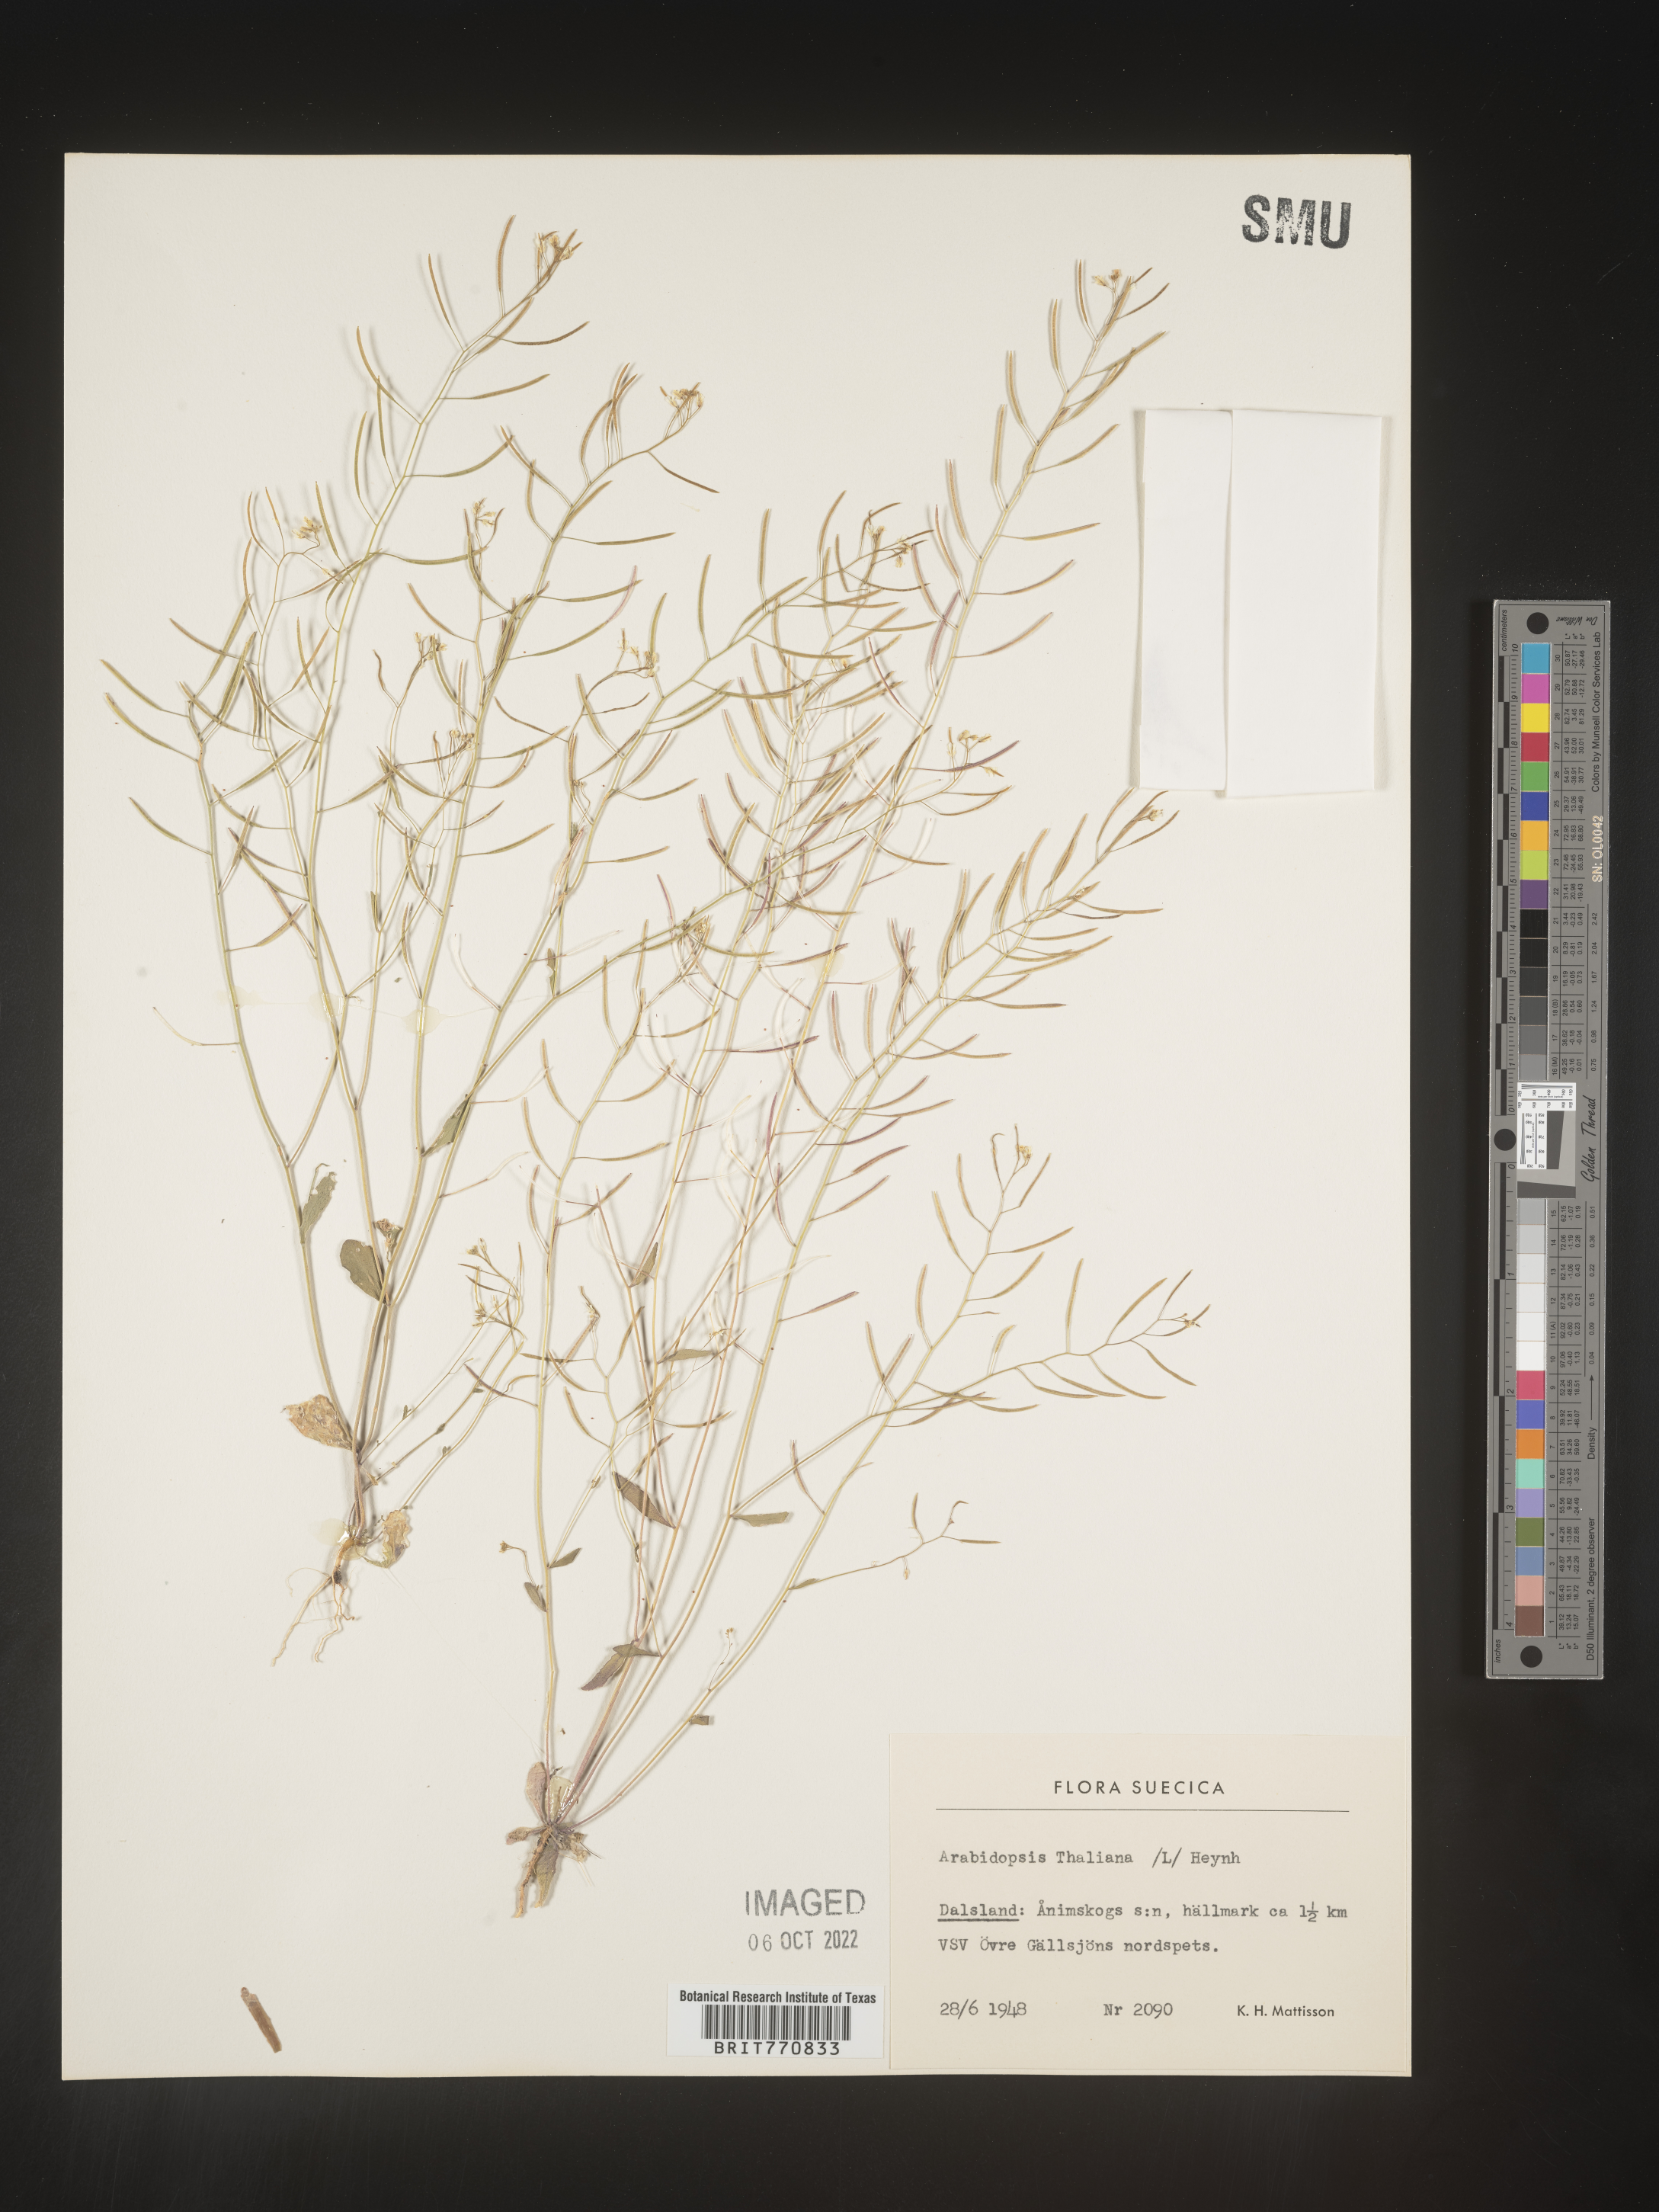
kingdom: Plantae
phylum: Tracheophyta
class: Magnoliopsida
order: Brassicales
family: Brassicaceae
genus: Arabidopsis
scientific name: Arabidopsis
